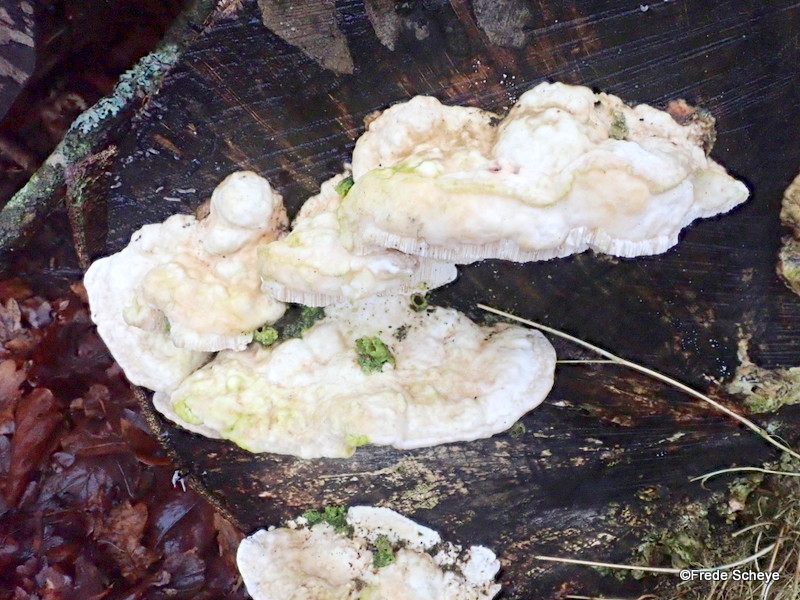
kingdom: Fungi
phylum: Basidiomycota
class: Agaricomycetes
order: Polyporales
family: Polyporaceae
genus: Trametes
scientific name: Trametes gibbosa
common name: puklet læderporesvamp
